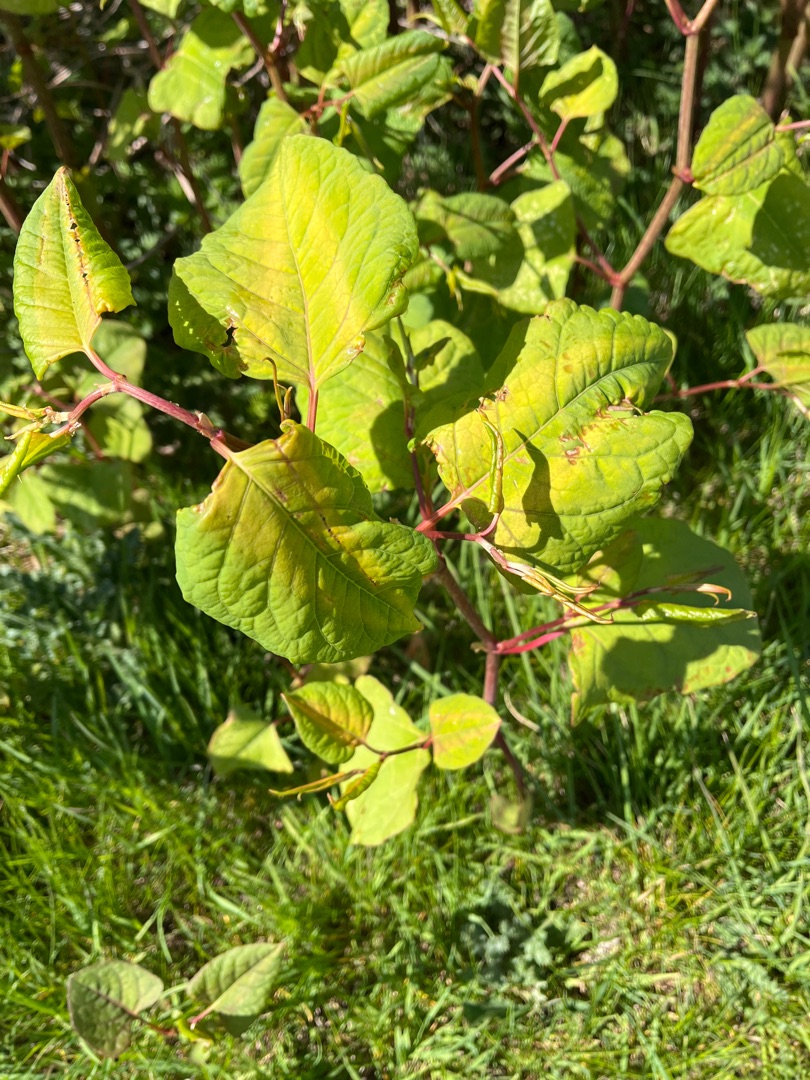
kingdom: Plantae
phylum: Tracheophyta
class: Magnoliopsida
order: Caryophyllales
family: Polygonaceae
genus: Reynoutria
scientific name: Reynoutria japonica
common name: Japan-pileurt
